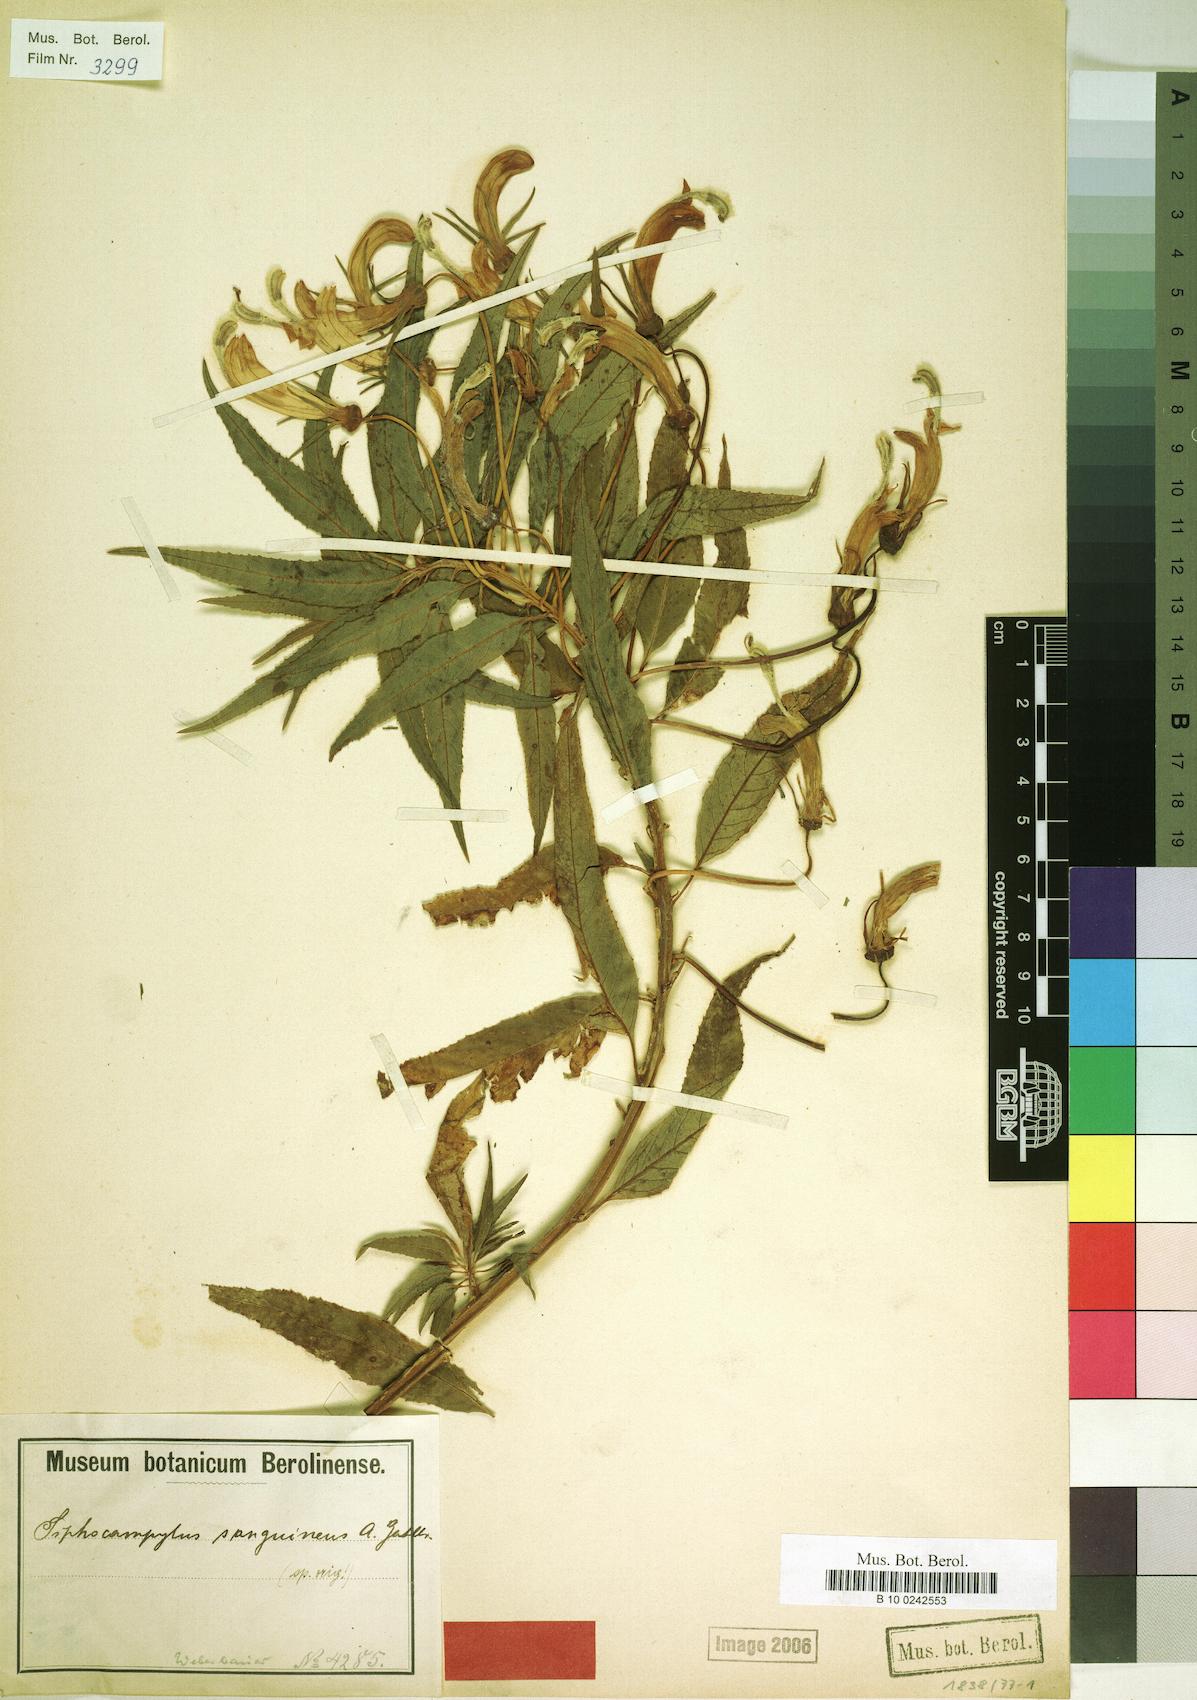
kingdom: Plantae
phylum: Tracheophyta
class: Magnoliopsida
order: Asterales
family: Campanulaceae
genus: Siphocampylus
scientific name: Siphocampylus sanguineus
